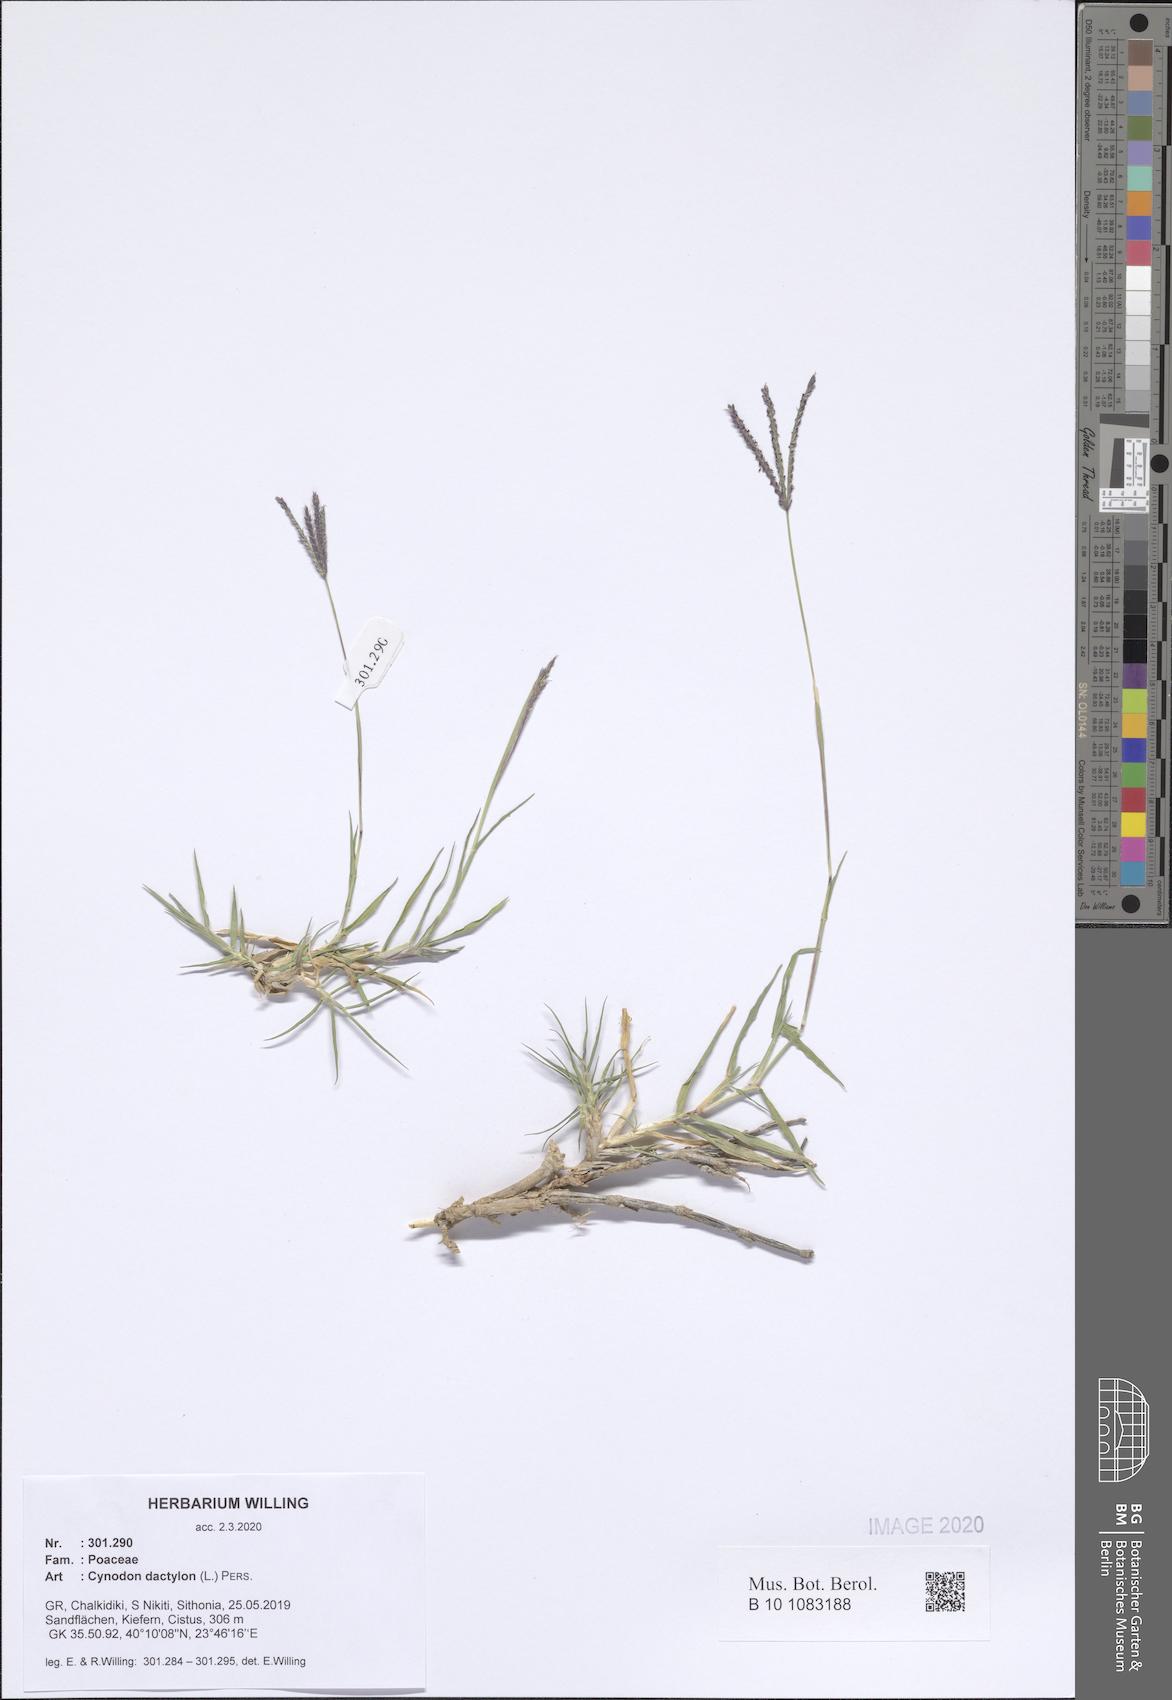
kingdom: Plantae
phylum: Tracheophyta
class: Liliopsida
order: Poales
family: Poaceae
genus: Cynodon
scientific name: Cynodon dactylon
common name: Bermuda grass
